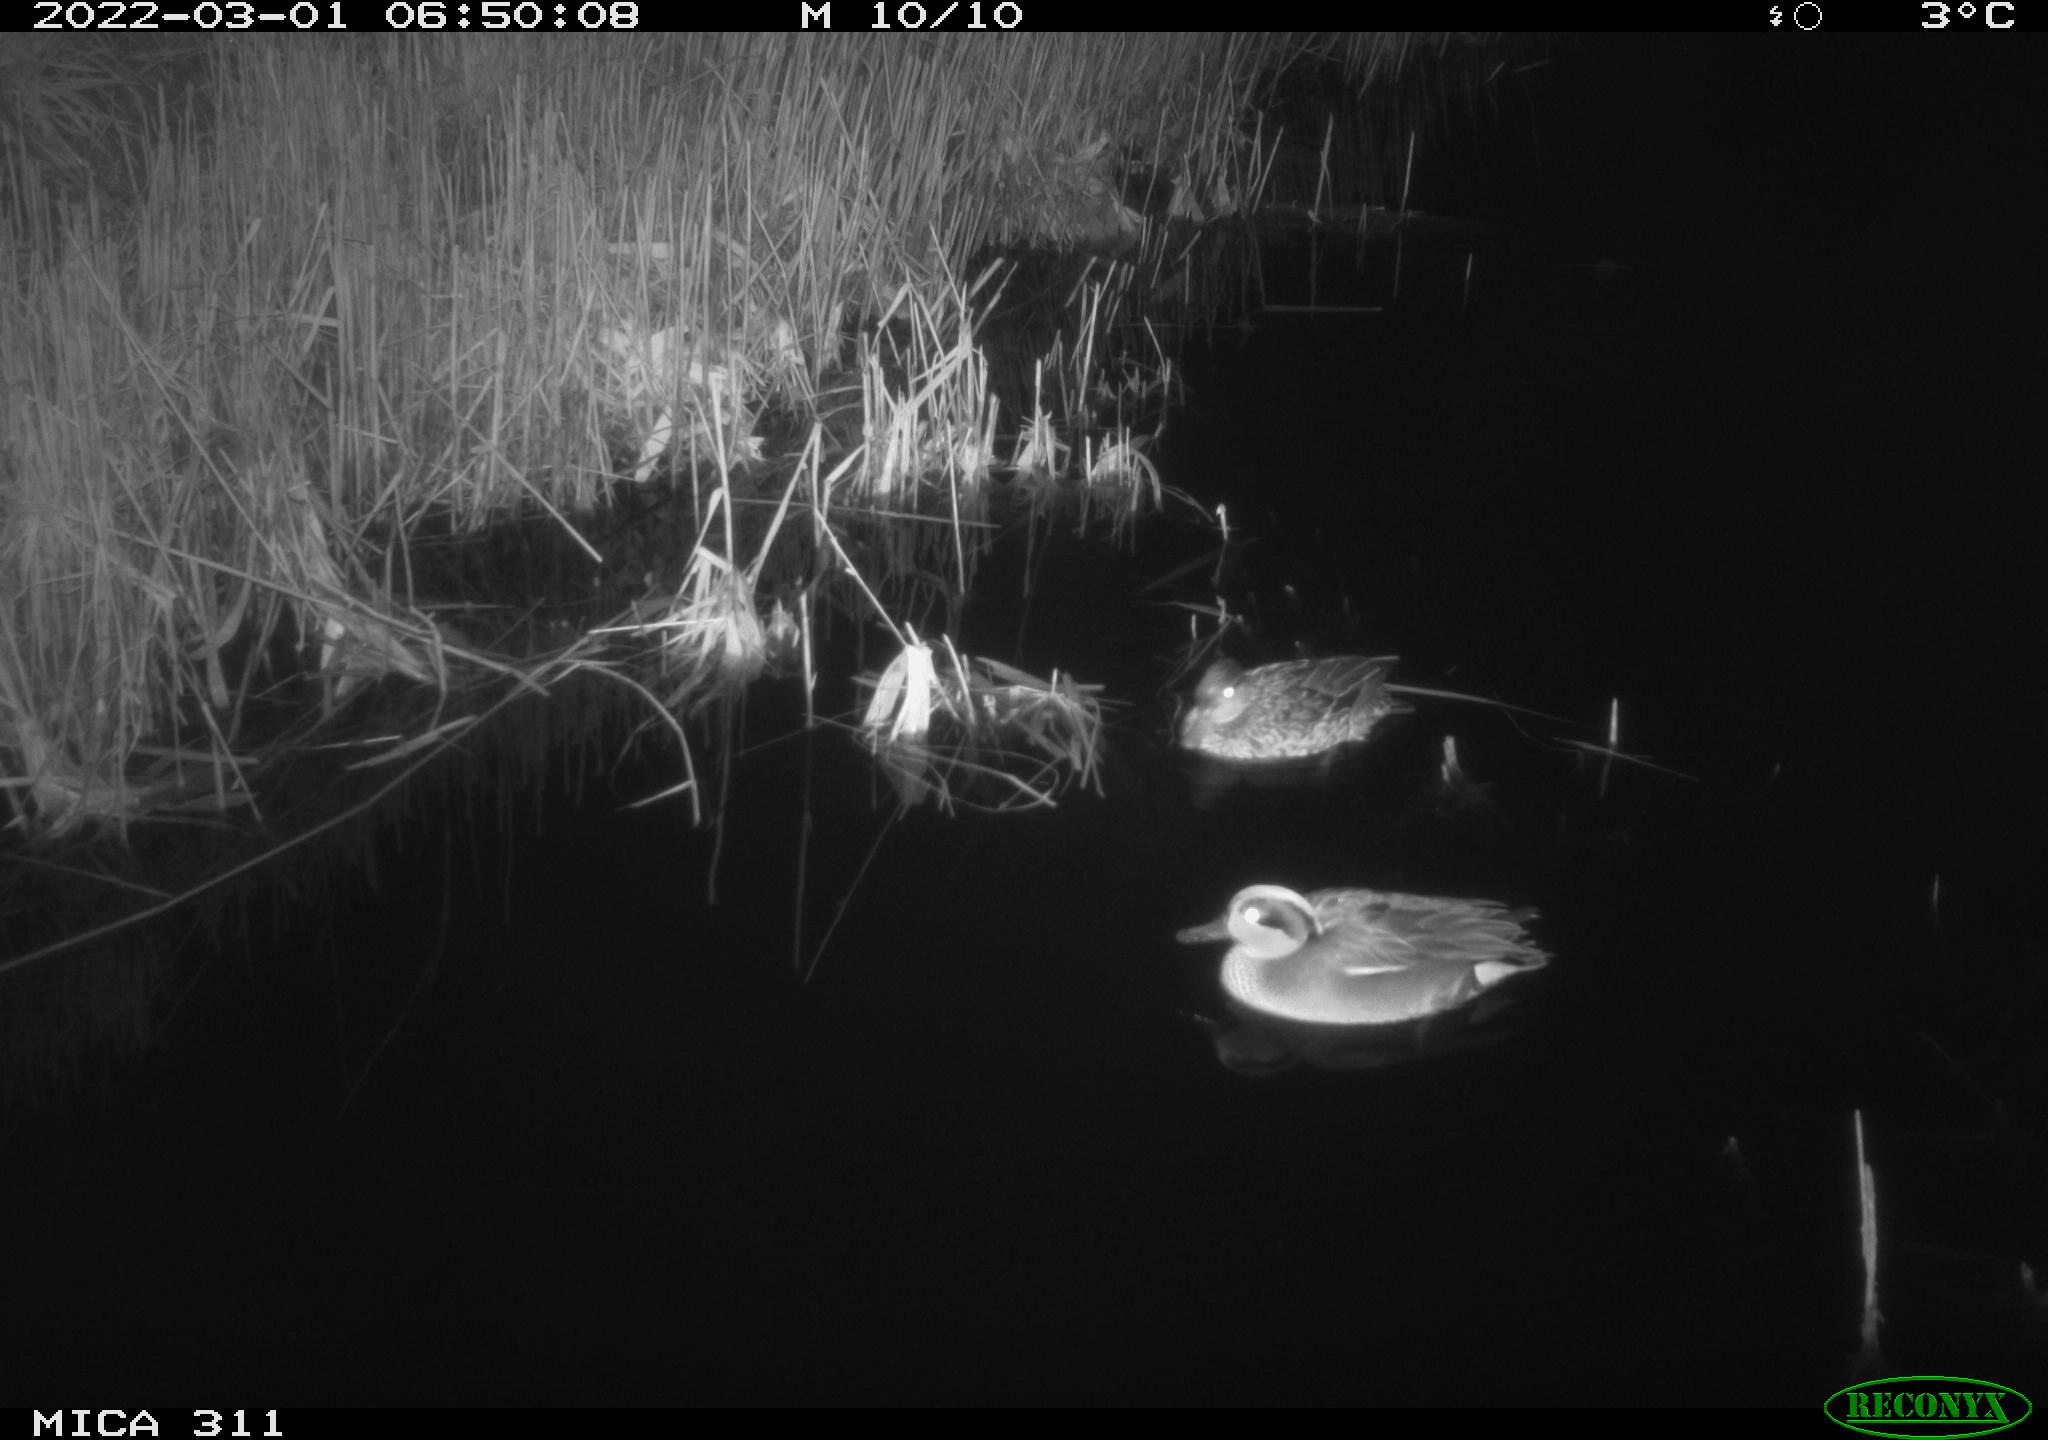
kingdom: Animalia
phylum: Chordata
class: Aves
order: Anseriformes
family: Anatidae
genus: Anas
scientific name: Anas crecca
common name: Eurasian teal
